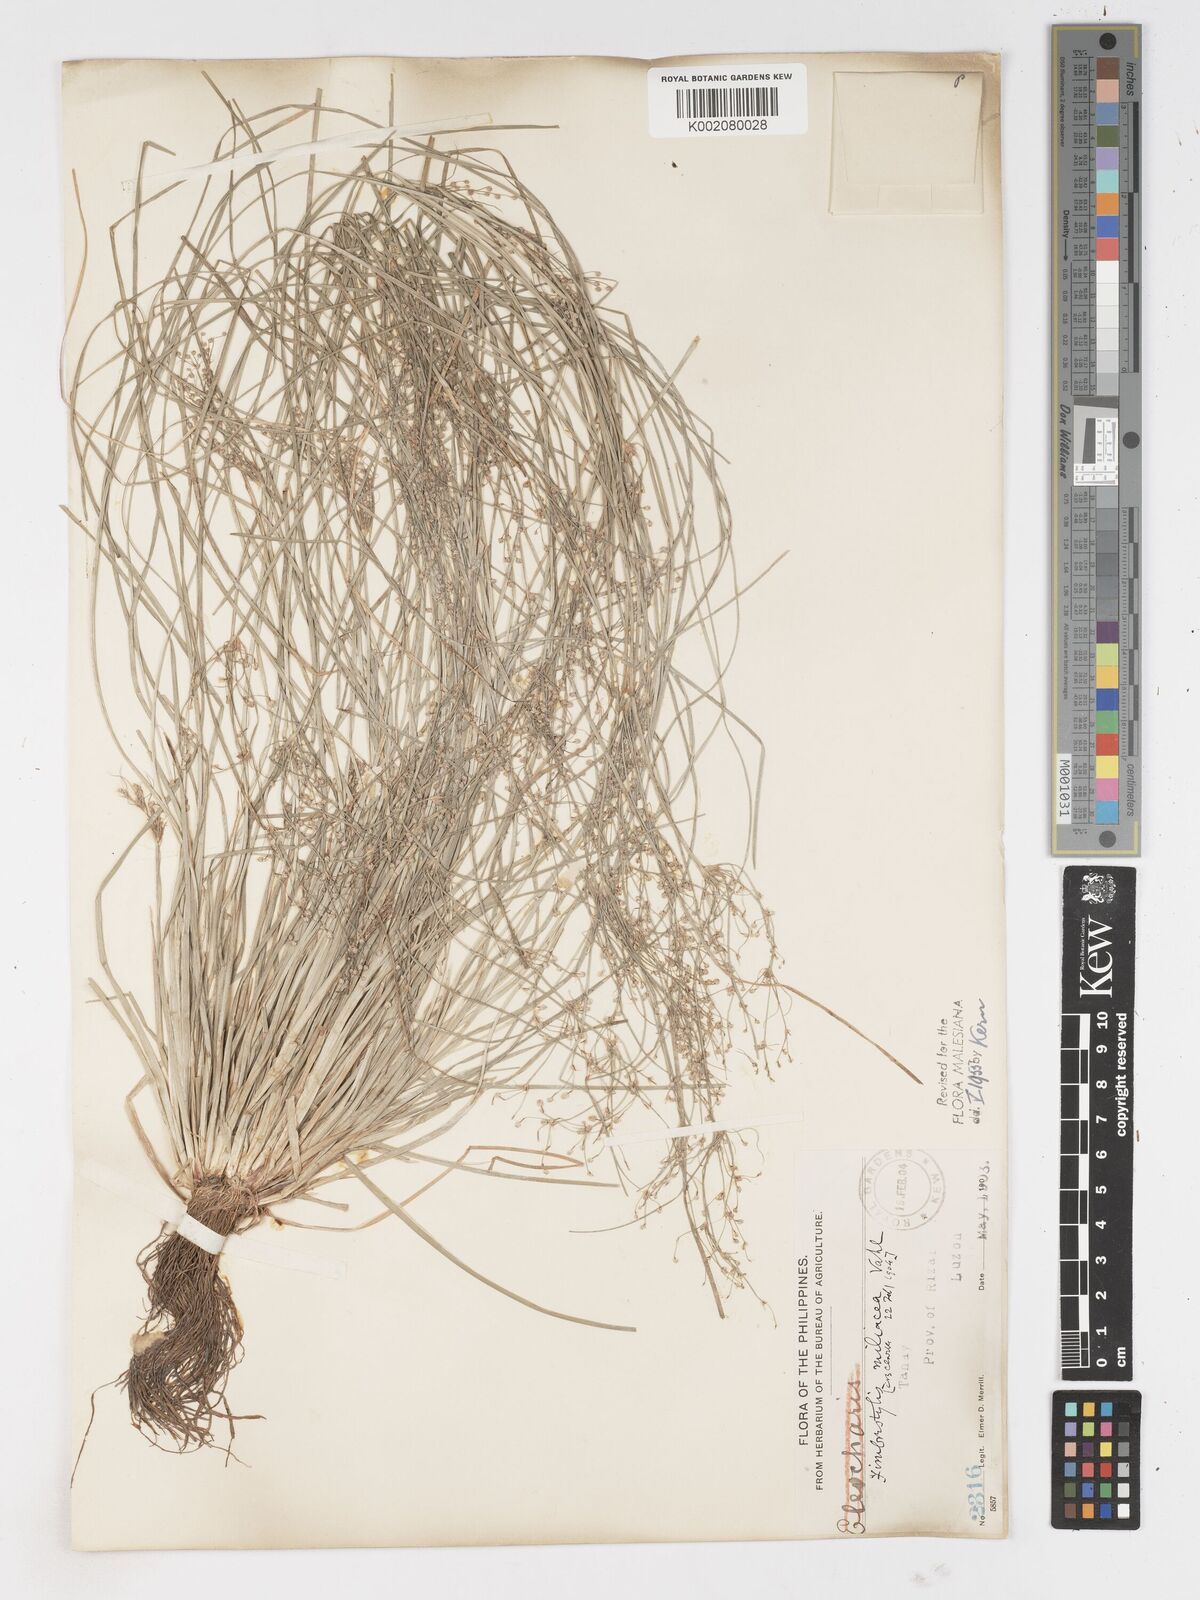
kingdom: Plantae
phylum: Tracheophyta
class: Liliopsida
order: Poales
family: Cyperaceae
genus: Fimbristylis
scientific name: Fimbristylis littoralis
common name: Fimbry
